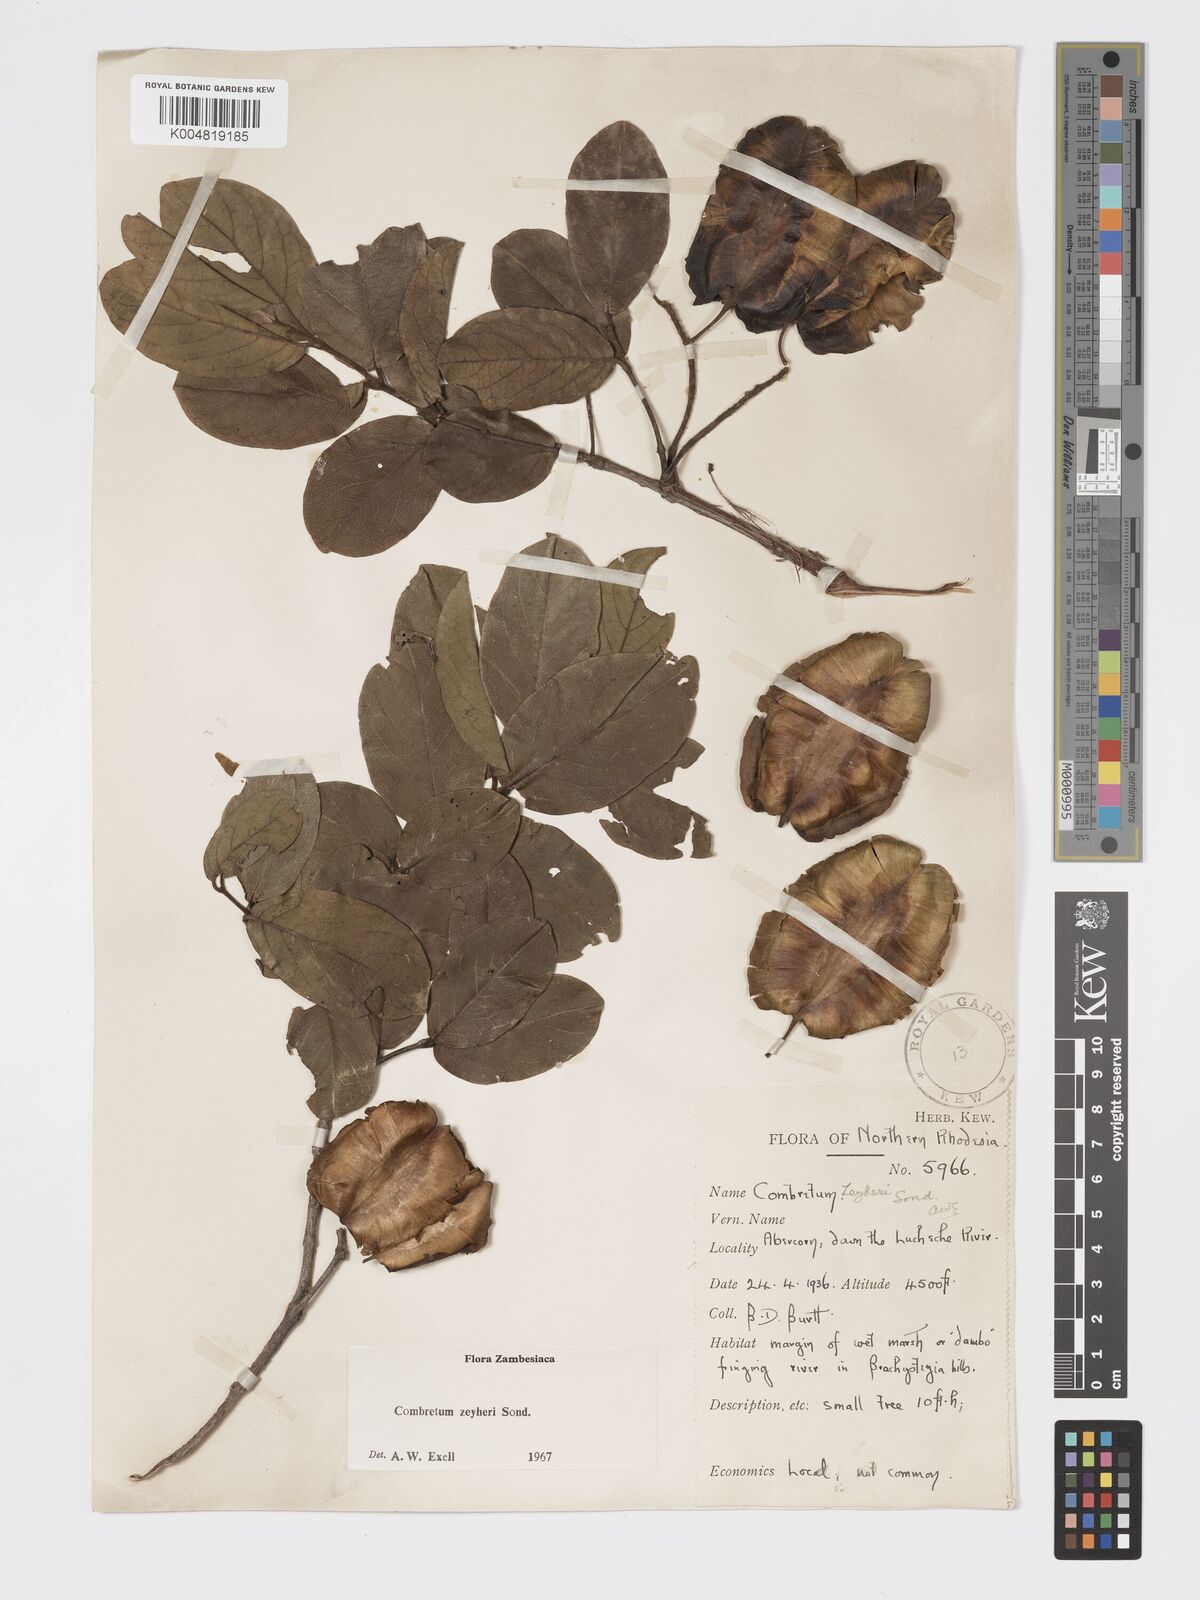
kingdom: Plantae
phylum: Tracheophyta
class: Magnoliopsida
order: Myrtales
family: Combretaceae
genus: Combretum
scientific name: Combretum zeyheri
